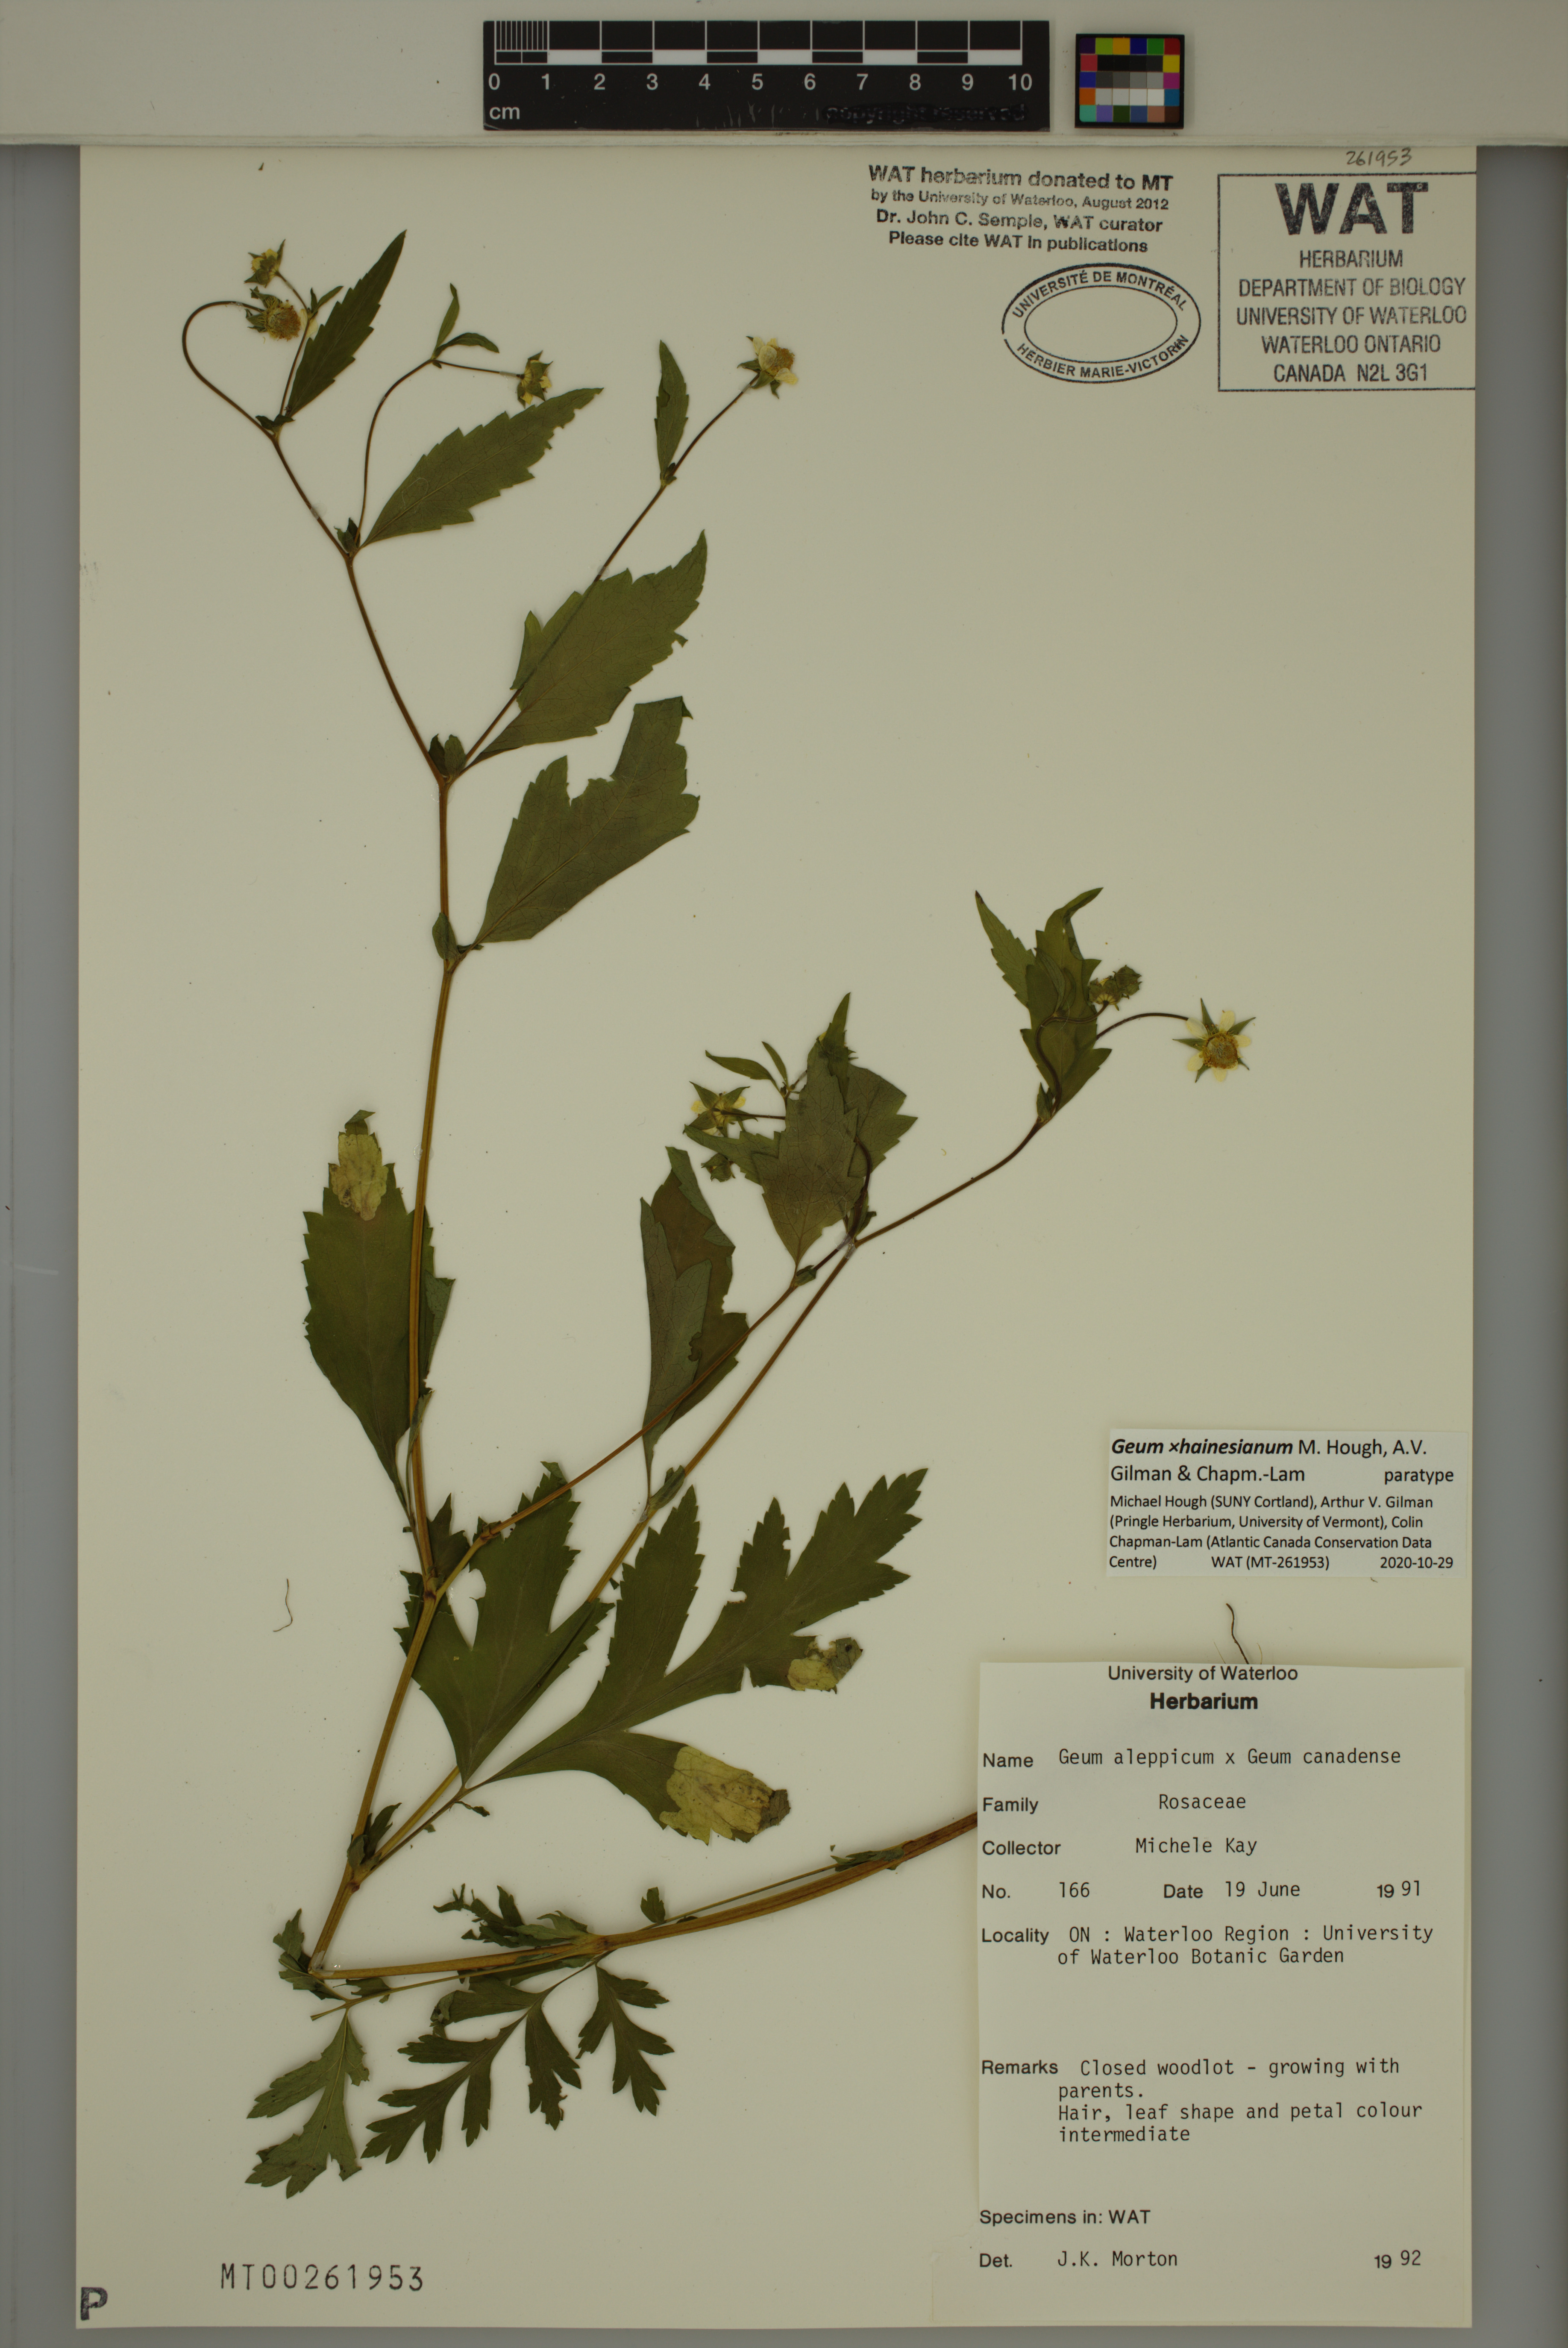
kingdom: Plantae
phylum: Tracheophyta
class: Magnoliopsida
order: Rosales
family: Rosaceae
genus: Geum
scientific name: Geum hainesianum
